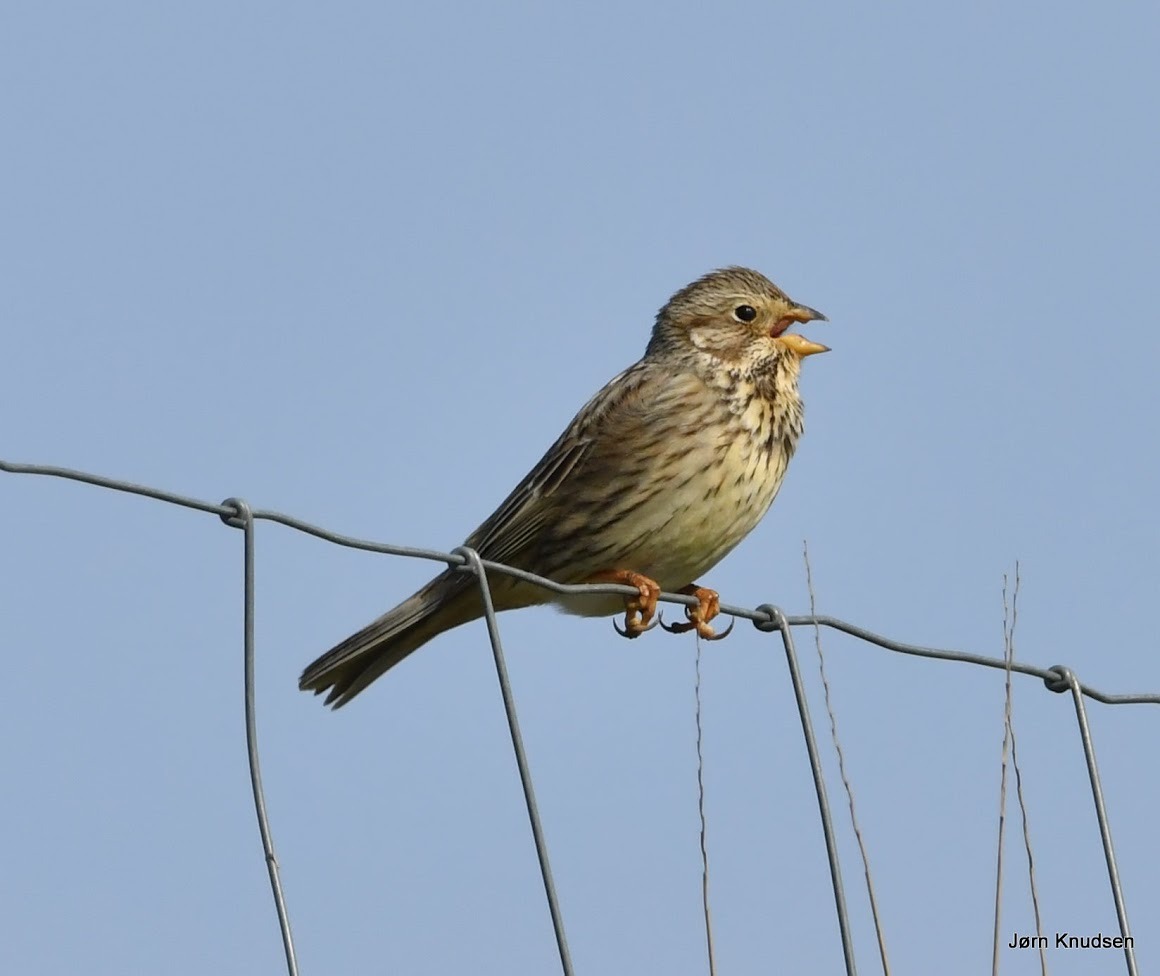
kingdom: Animalia
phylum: Chordata
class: Aves
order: Passeriformes
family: Emberizidae
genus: Emberiza
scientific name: Emberiza calandra
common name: Bomlærke
